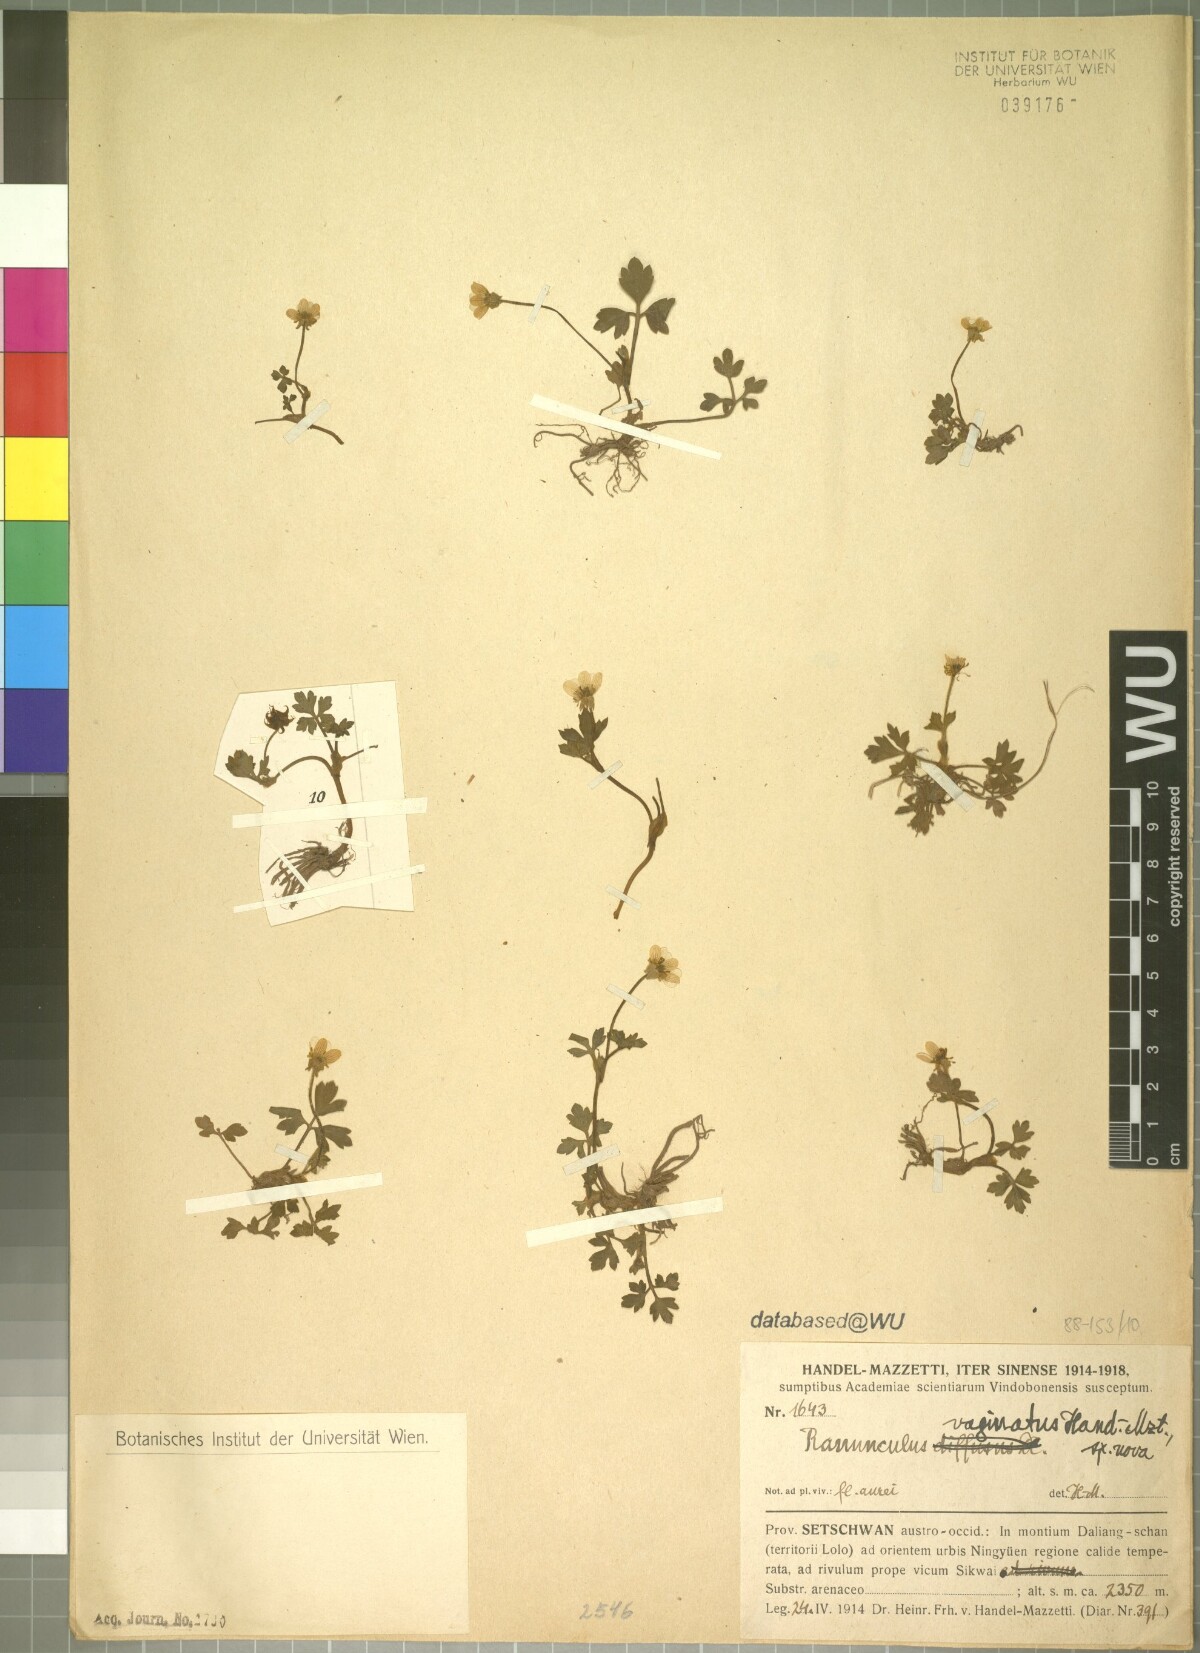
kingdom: Plantae
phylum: Tracheophyta
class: Magnoliopsida
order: Ranunculales
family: Ranunculaceae
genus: Ranunculus
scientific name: Ranunculus sinovaginatus
